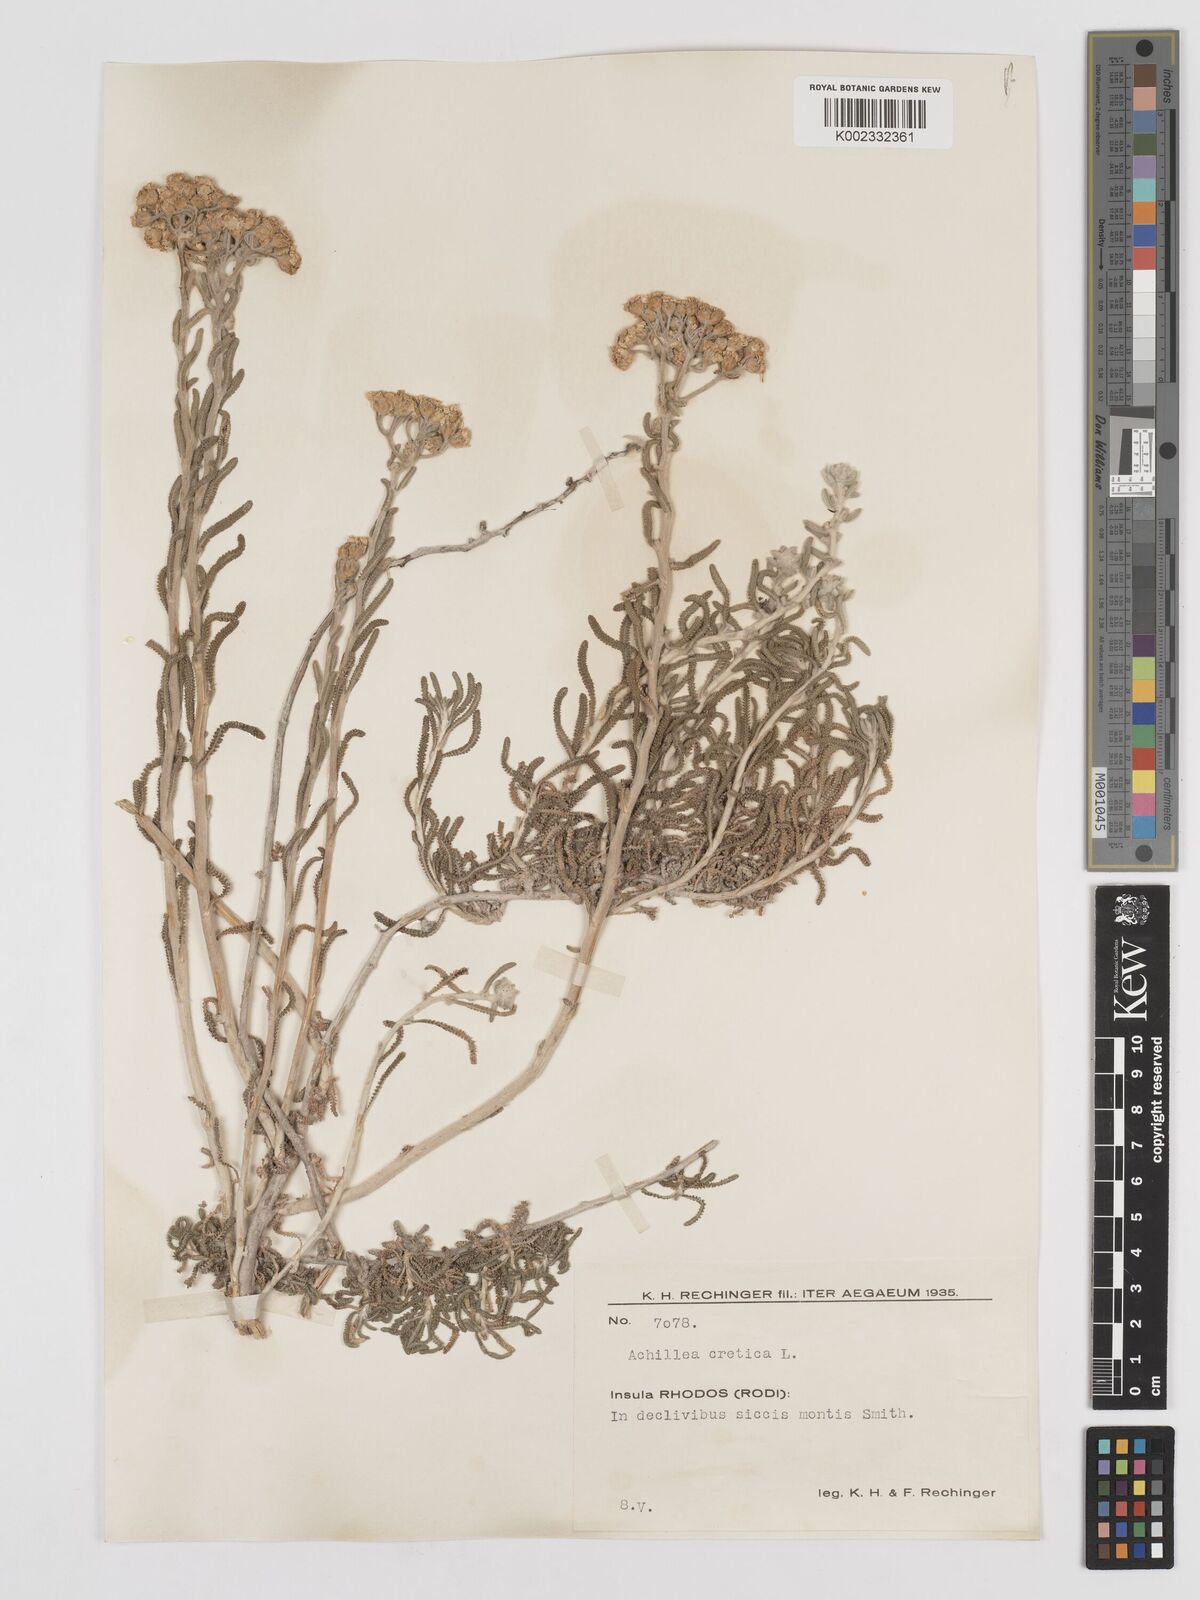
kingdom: Plantae
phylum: Tracheophyta
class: Magnoliopsida
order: Asterales
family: Asteraceae
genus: Achillea
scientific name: Achillea cretica
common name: Chamomile-leaved lavender-cotton
